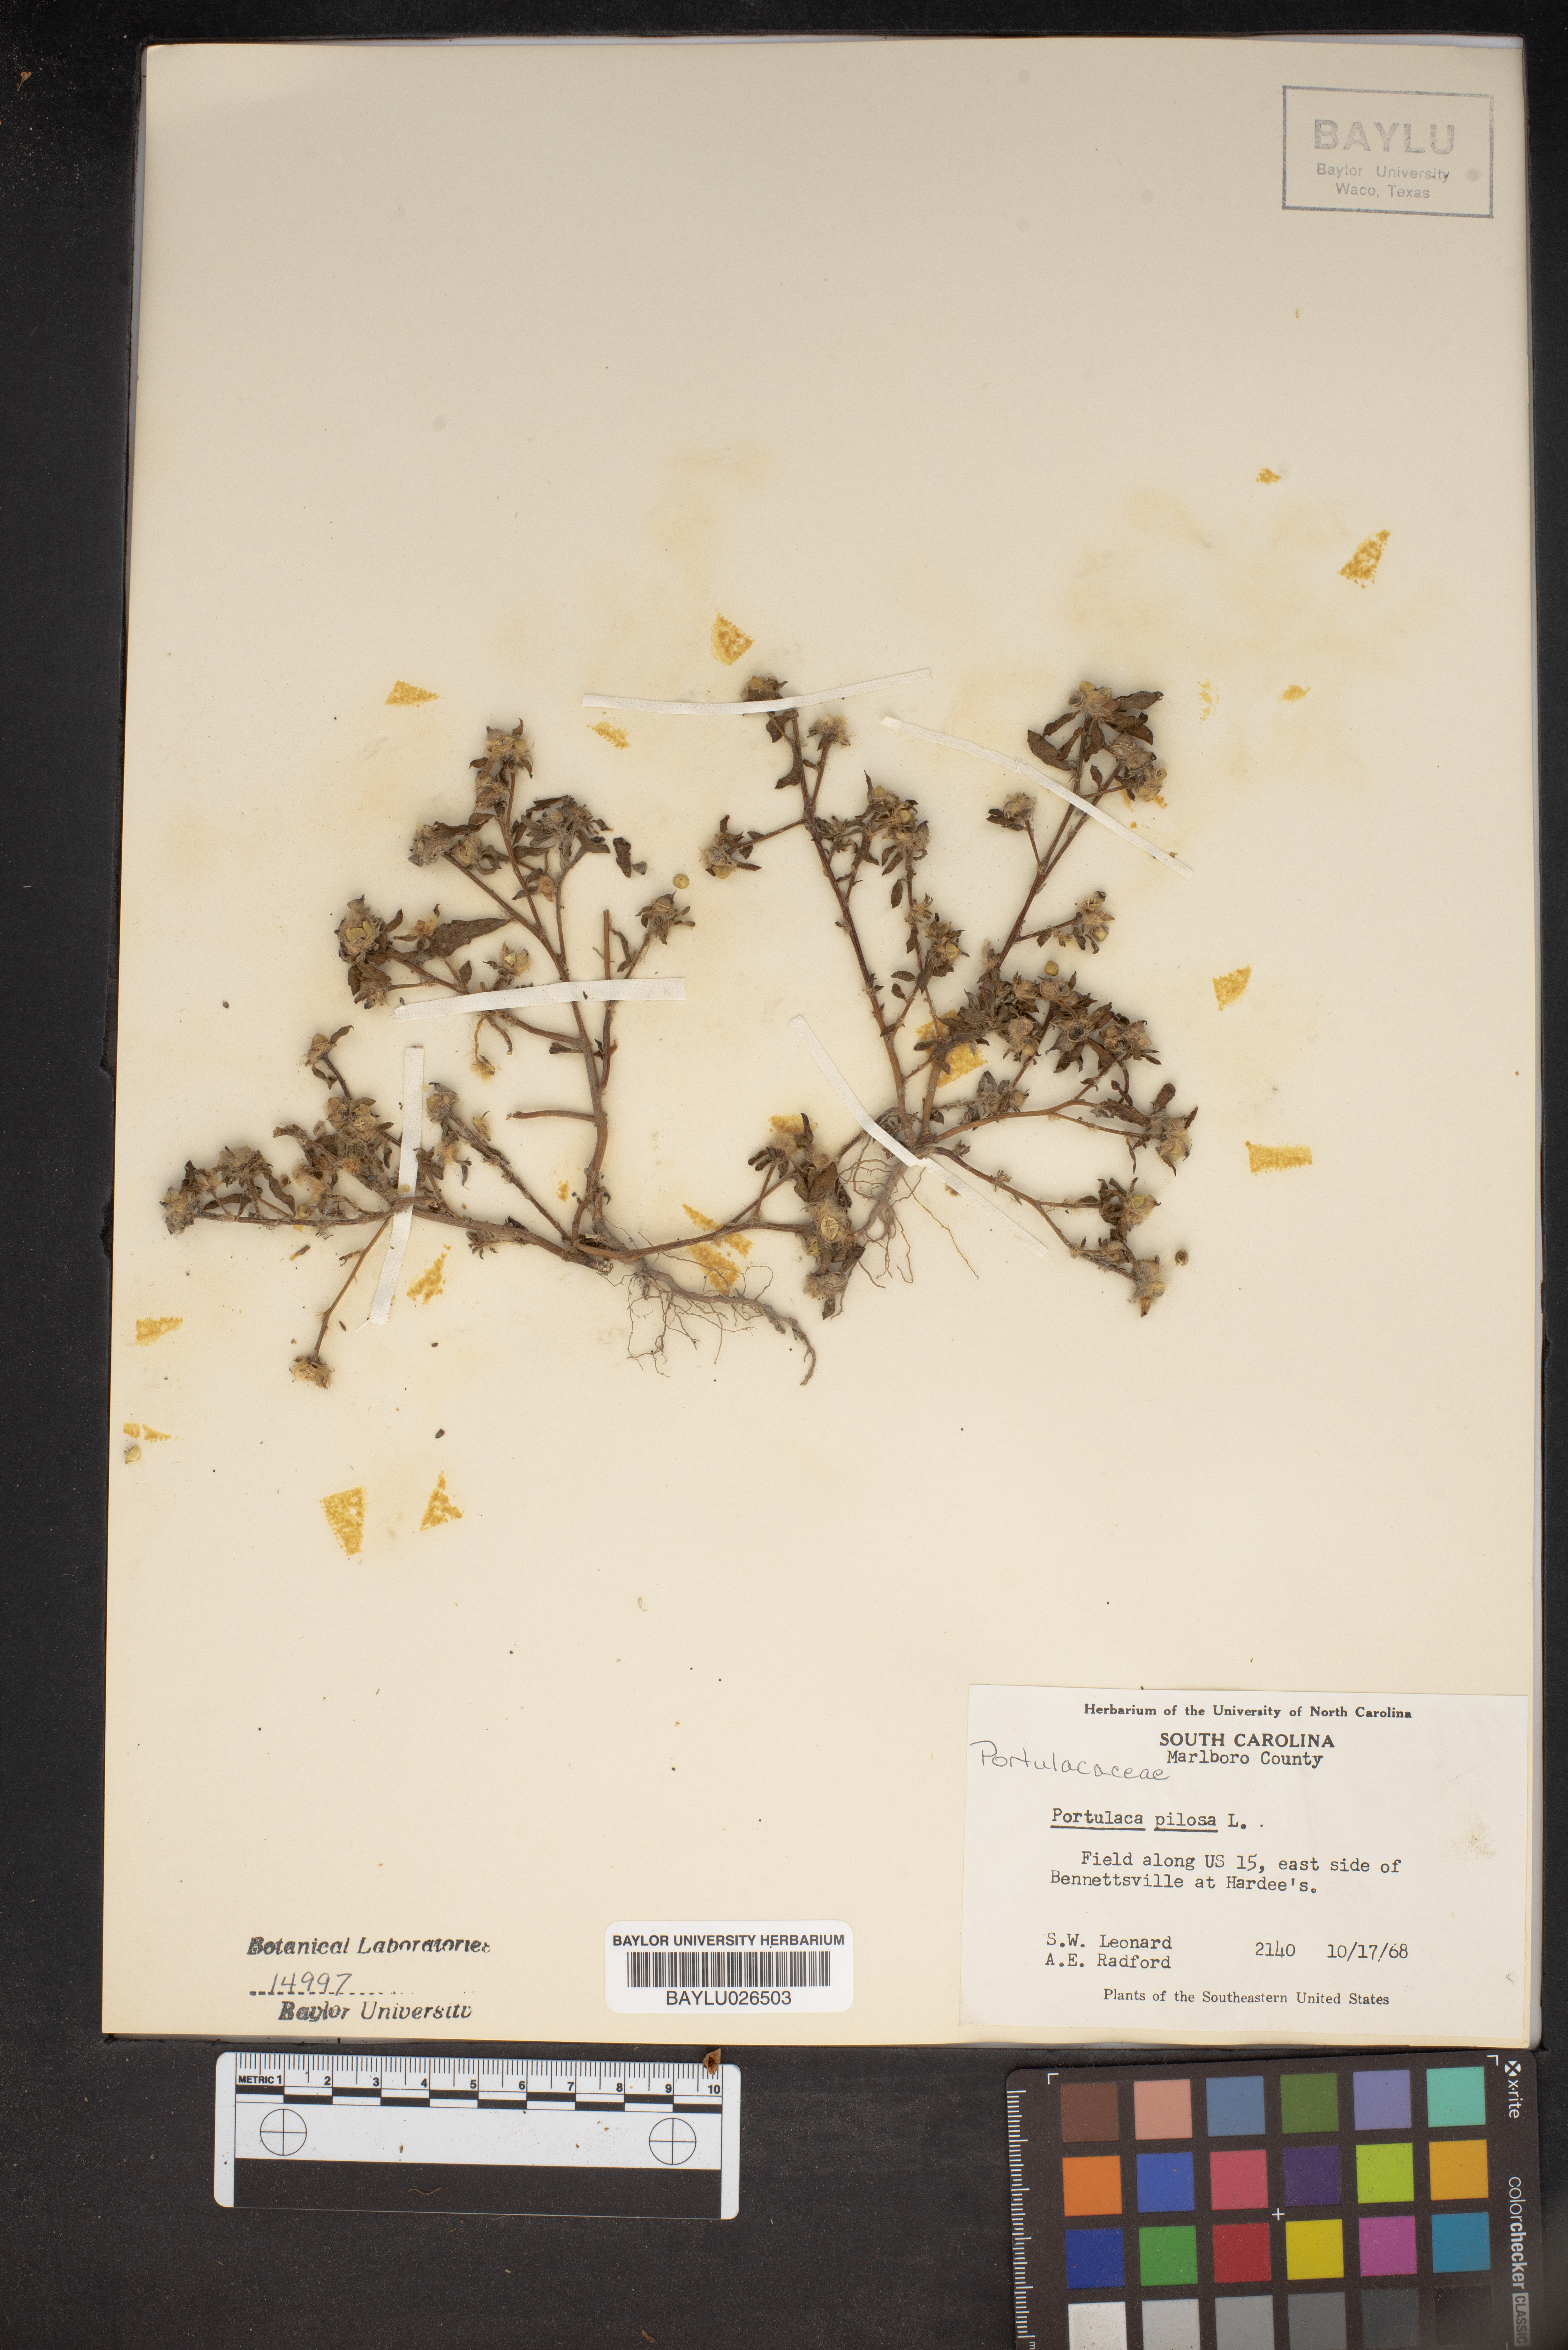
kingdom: Plantae
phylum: Tracheophyta
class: Magnoliopsida
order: Caryophyllales
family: Portulacaceae
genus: Portulaca
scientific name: Portulaca pilosa
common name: Kiss me quick
